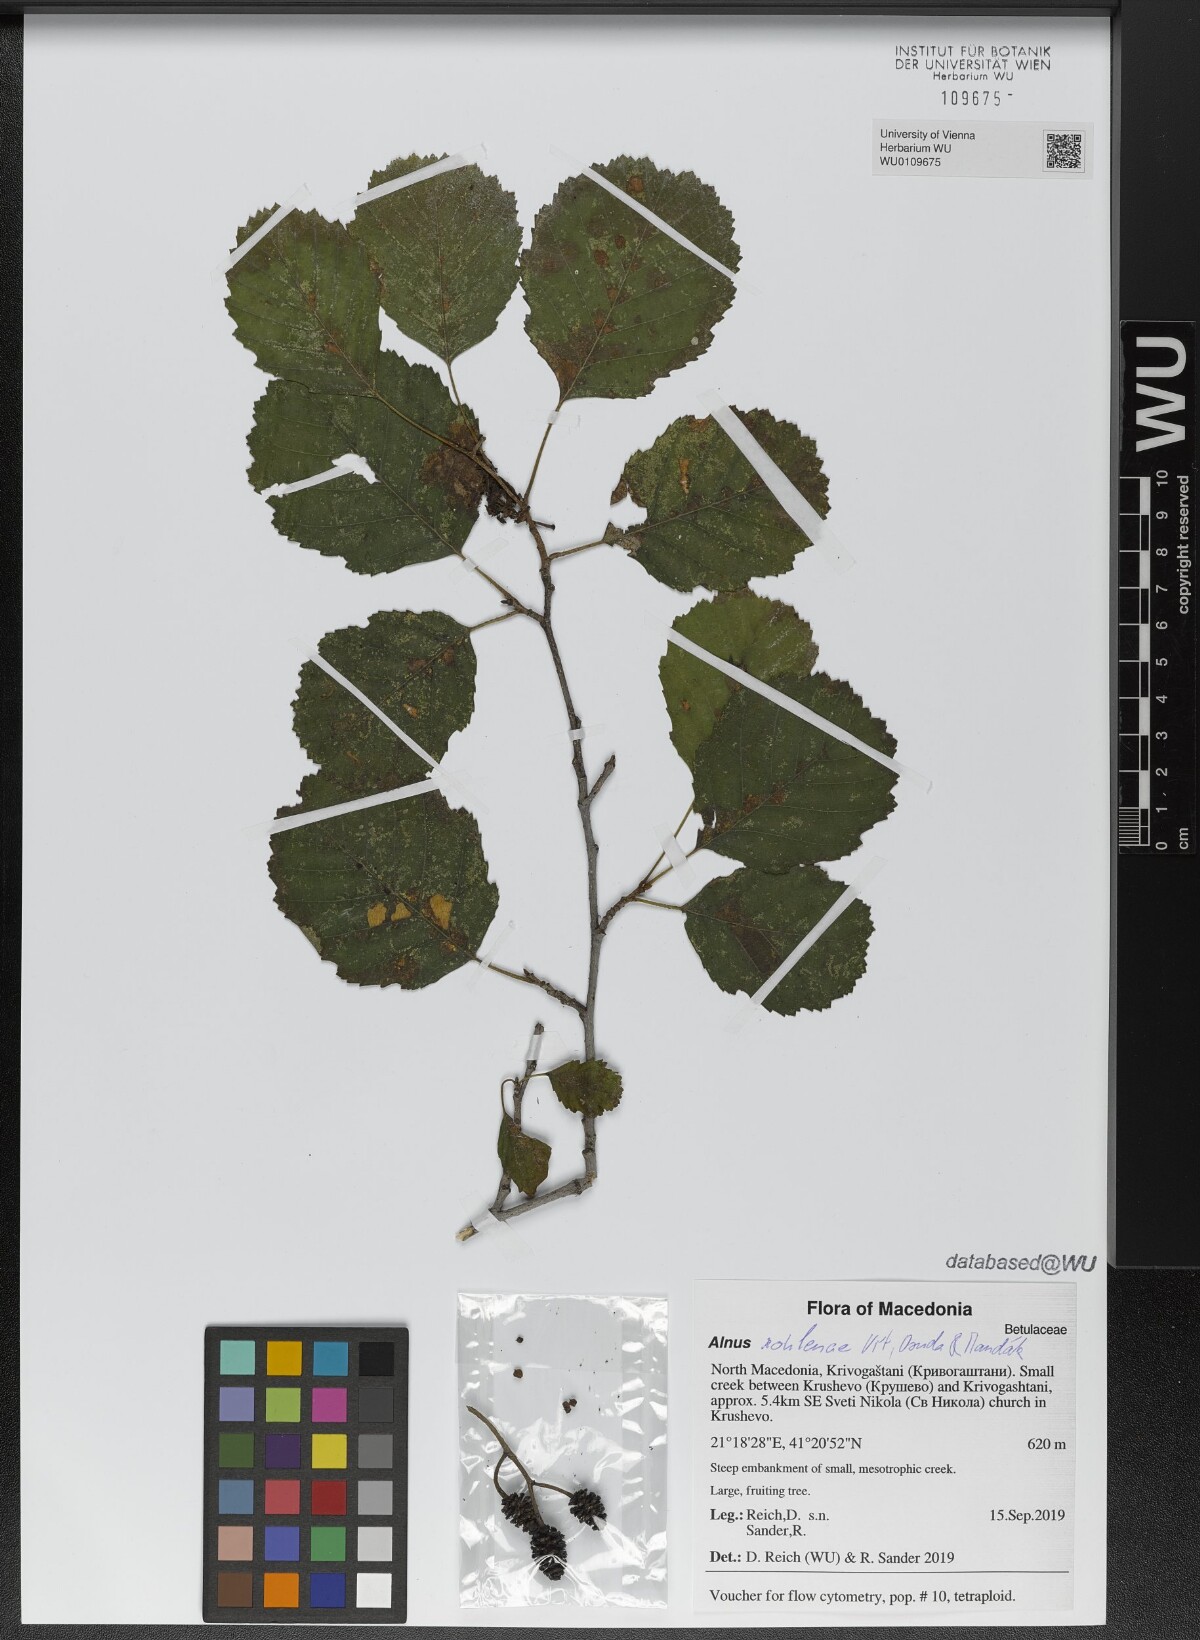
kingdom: Plantae
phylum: Tracheophyta
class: Magnoliopsida
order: Fagales
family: Betulaceae
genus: Alnus
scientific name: Alnus rohlenae
